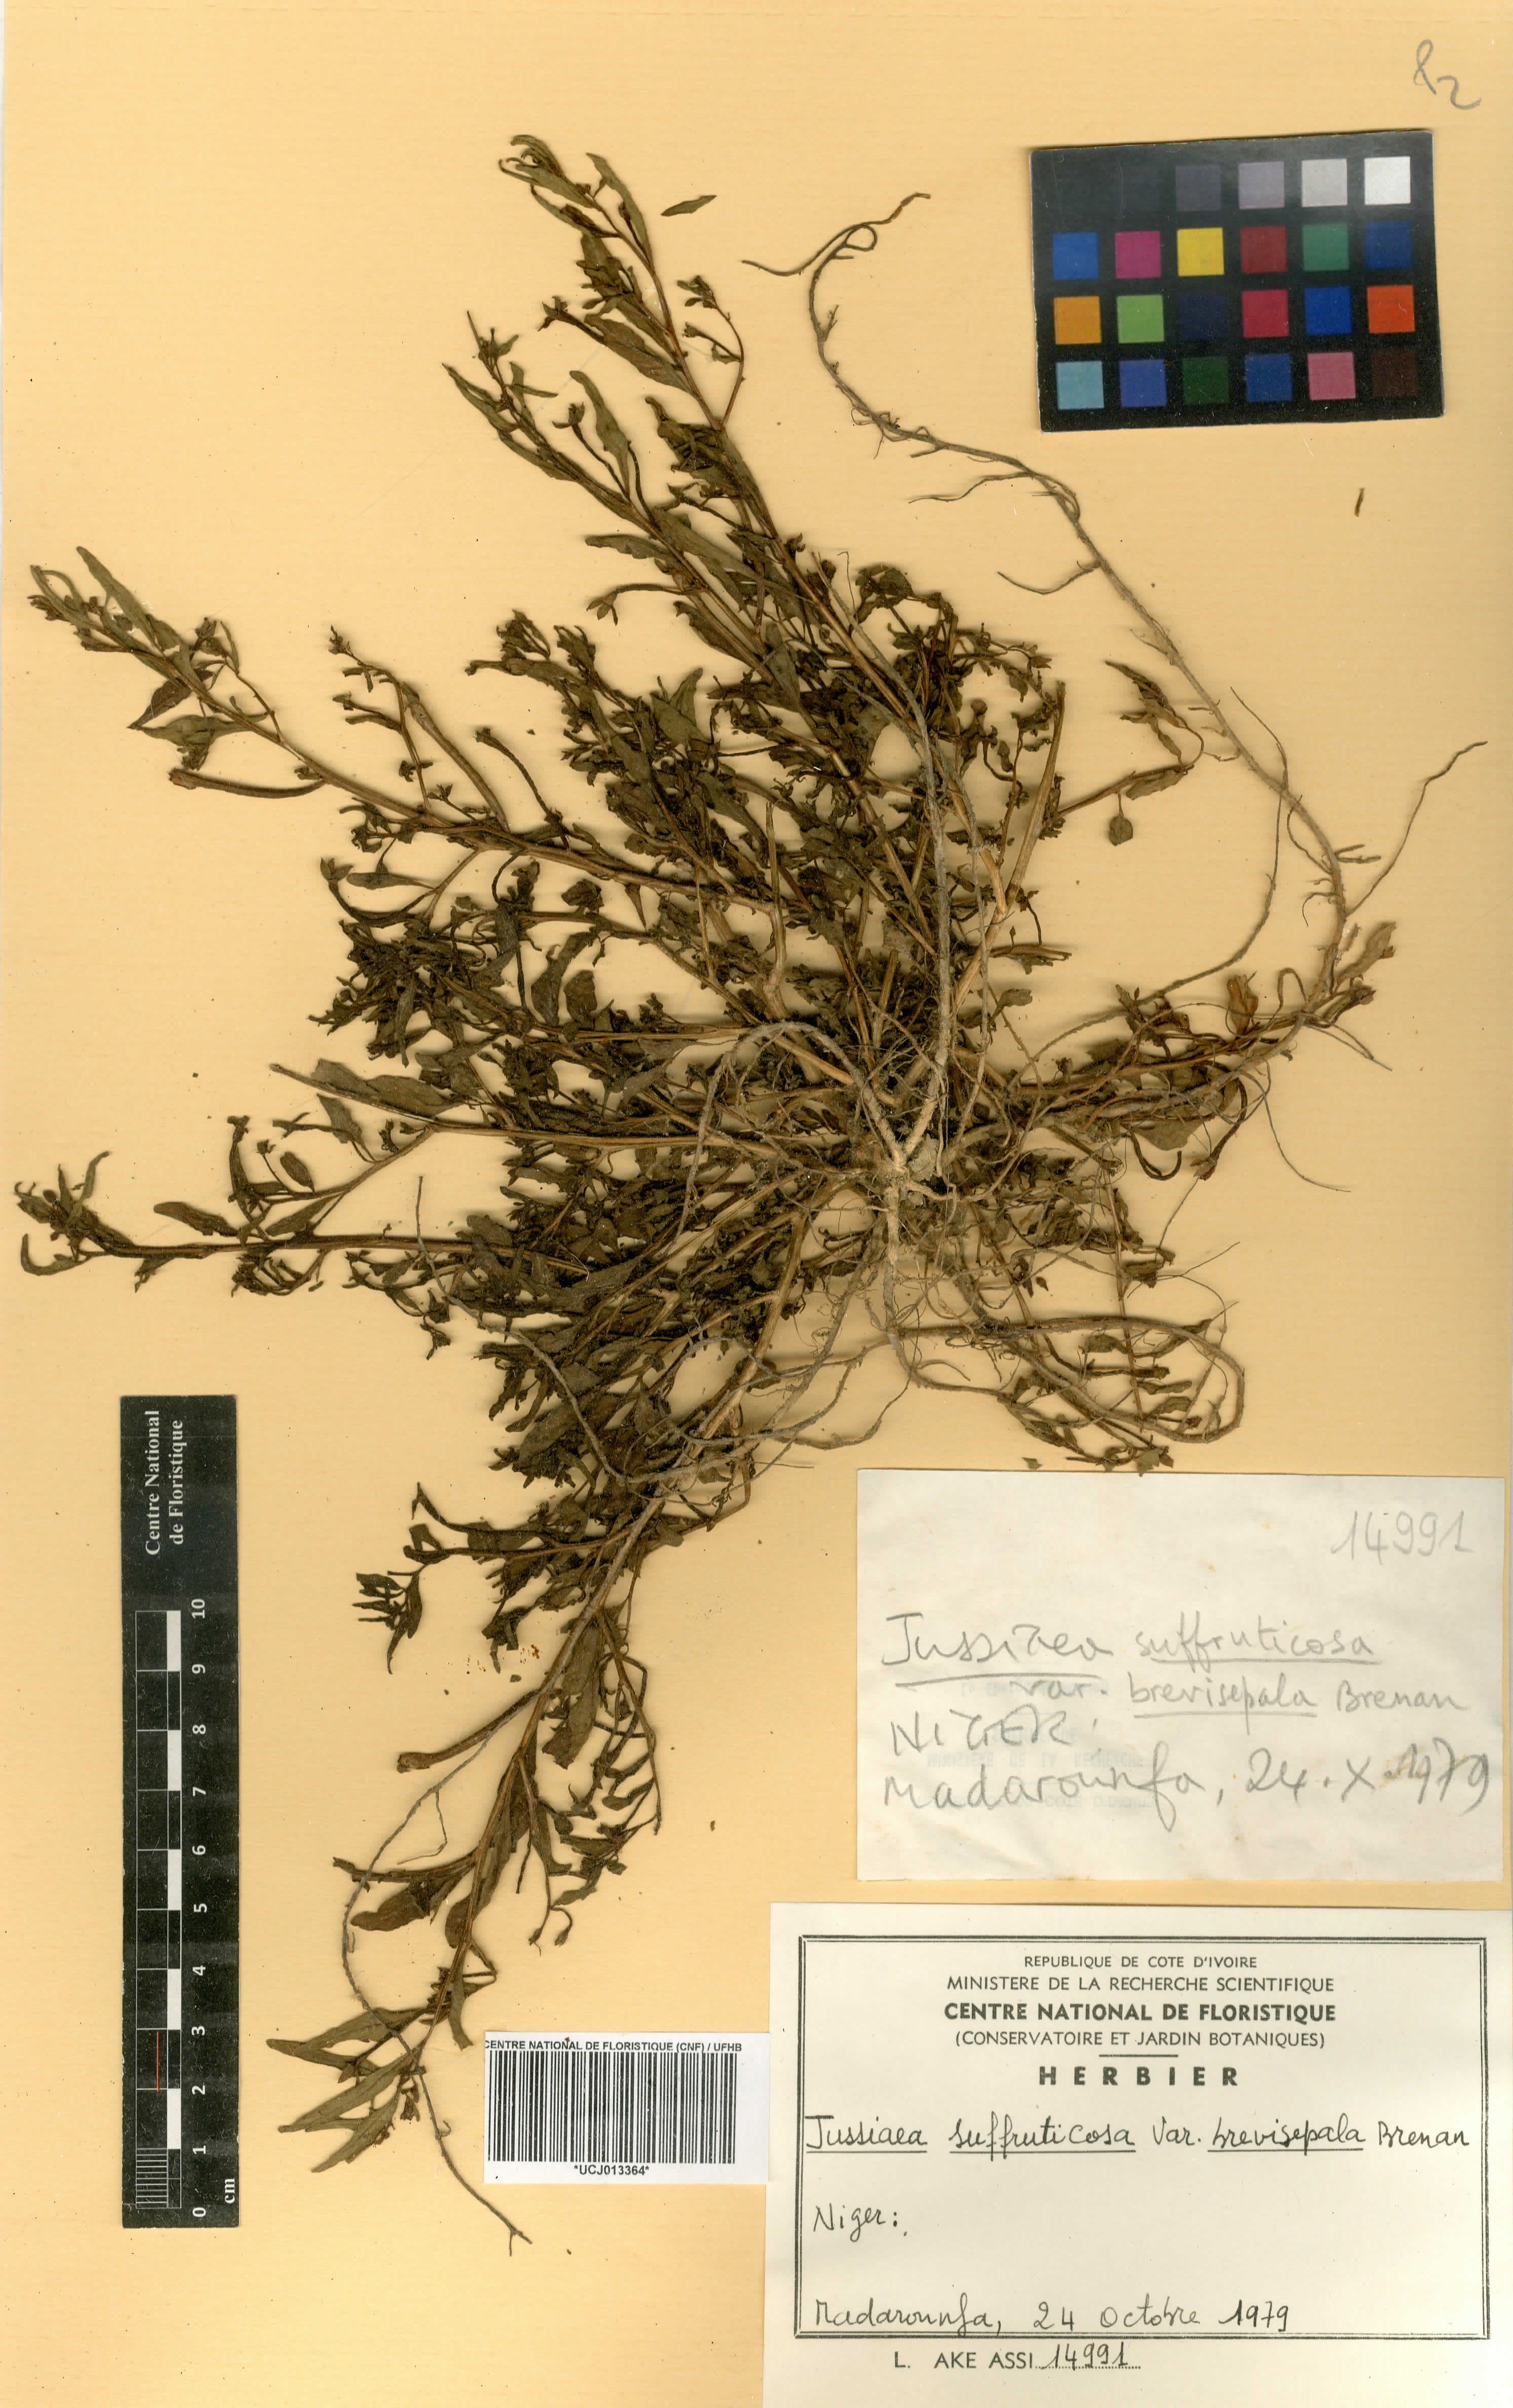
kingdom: Plantae
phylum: Tracheophyta
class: Magnoliopsida
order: Myrtales
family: Onagraceae
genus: Ludwigia
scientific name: Ludwigia octovalvis
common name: Water-primrose
